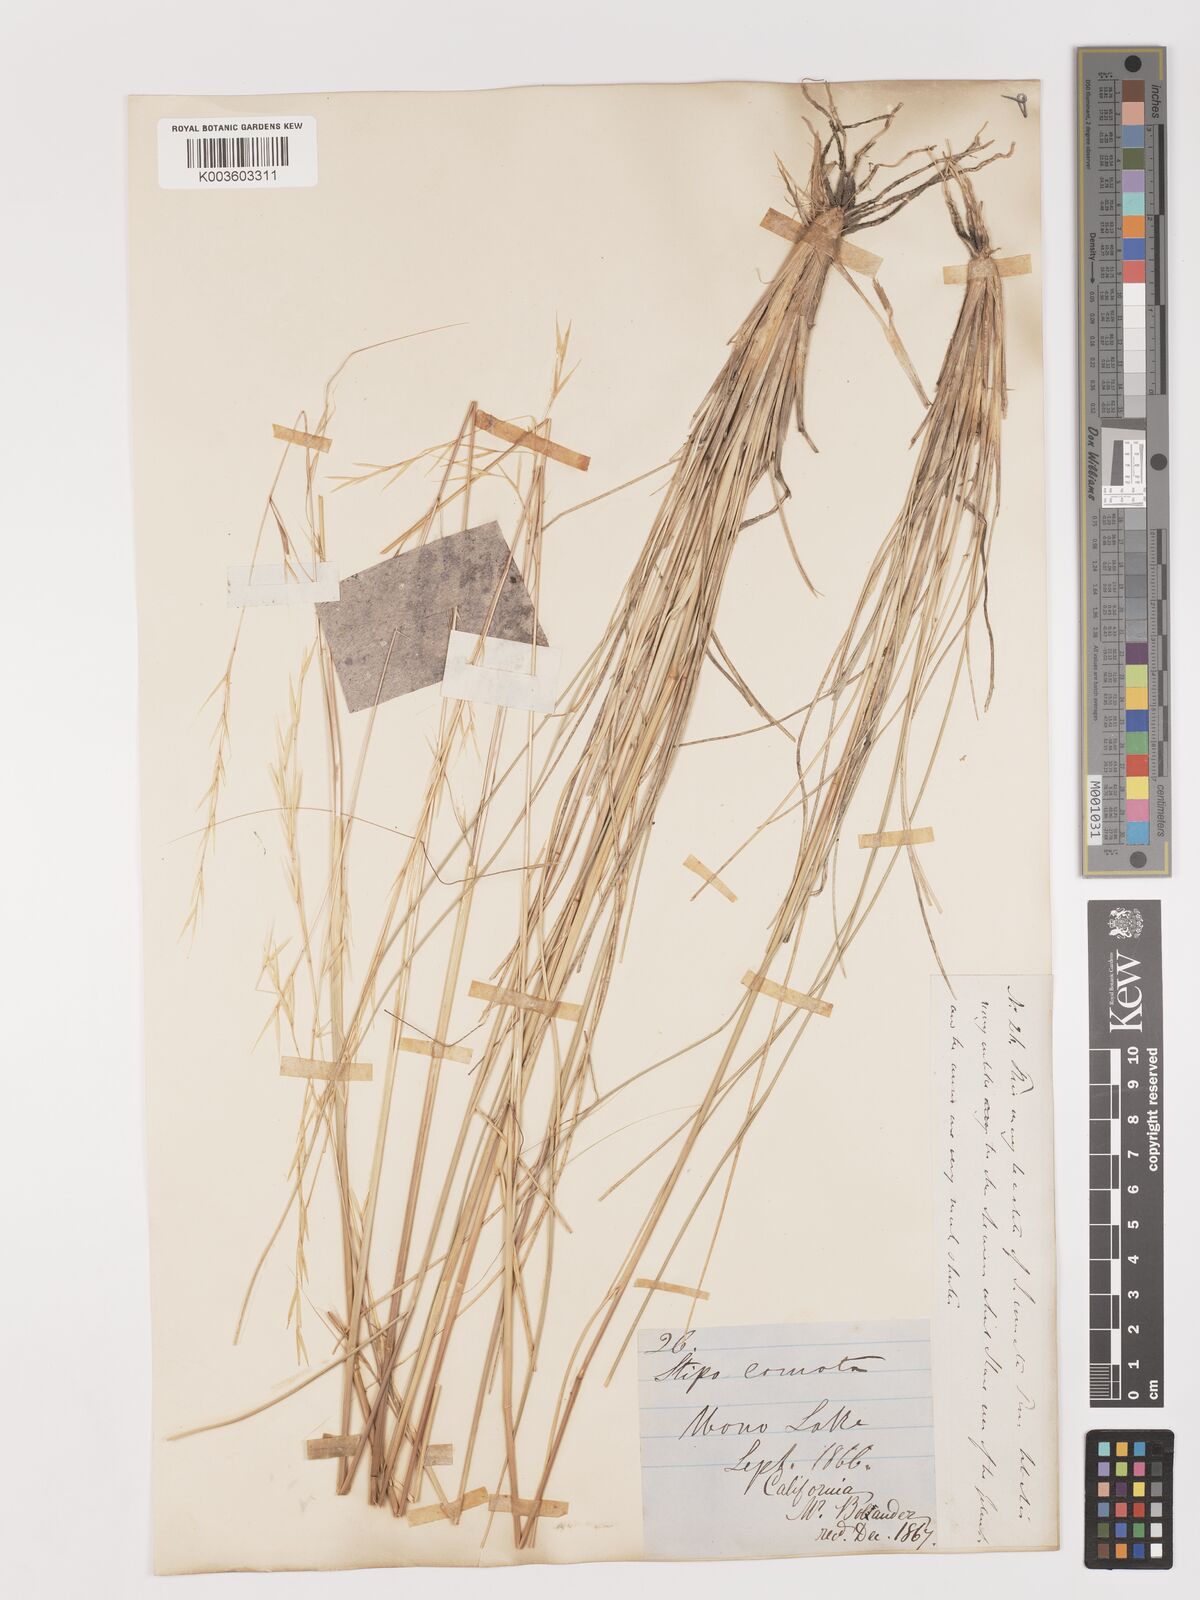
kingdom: Plantae
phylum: Tracheophyta
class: Liliopsida
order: Poales
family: Poaceae
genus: Stipa
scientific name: Stipa
